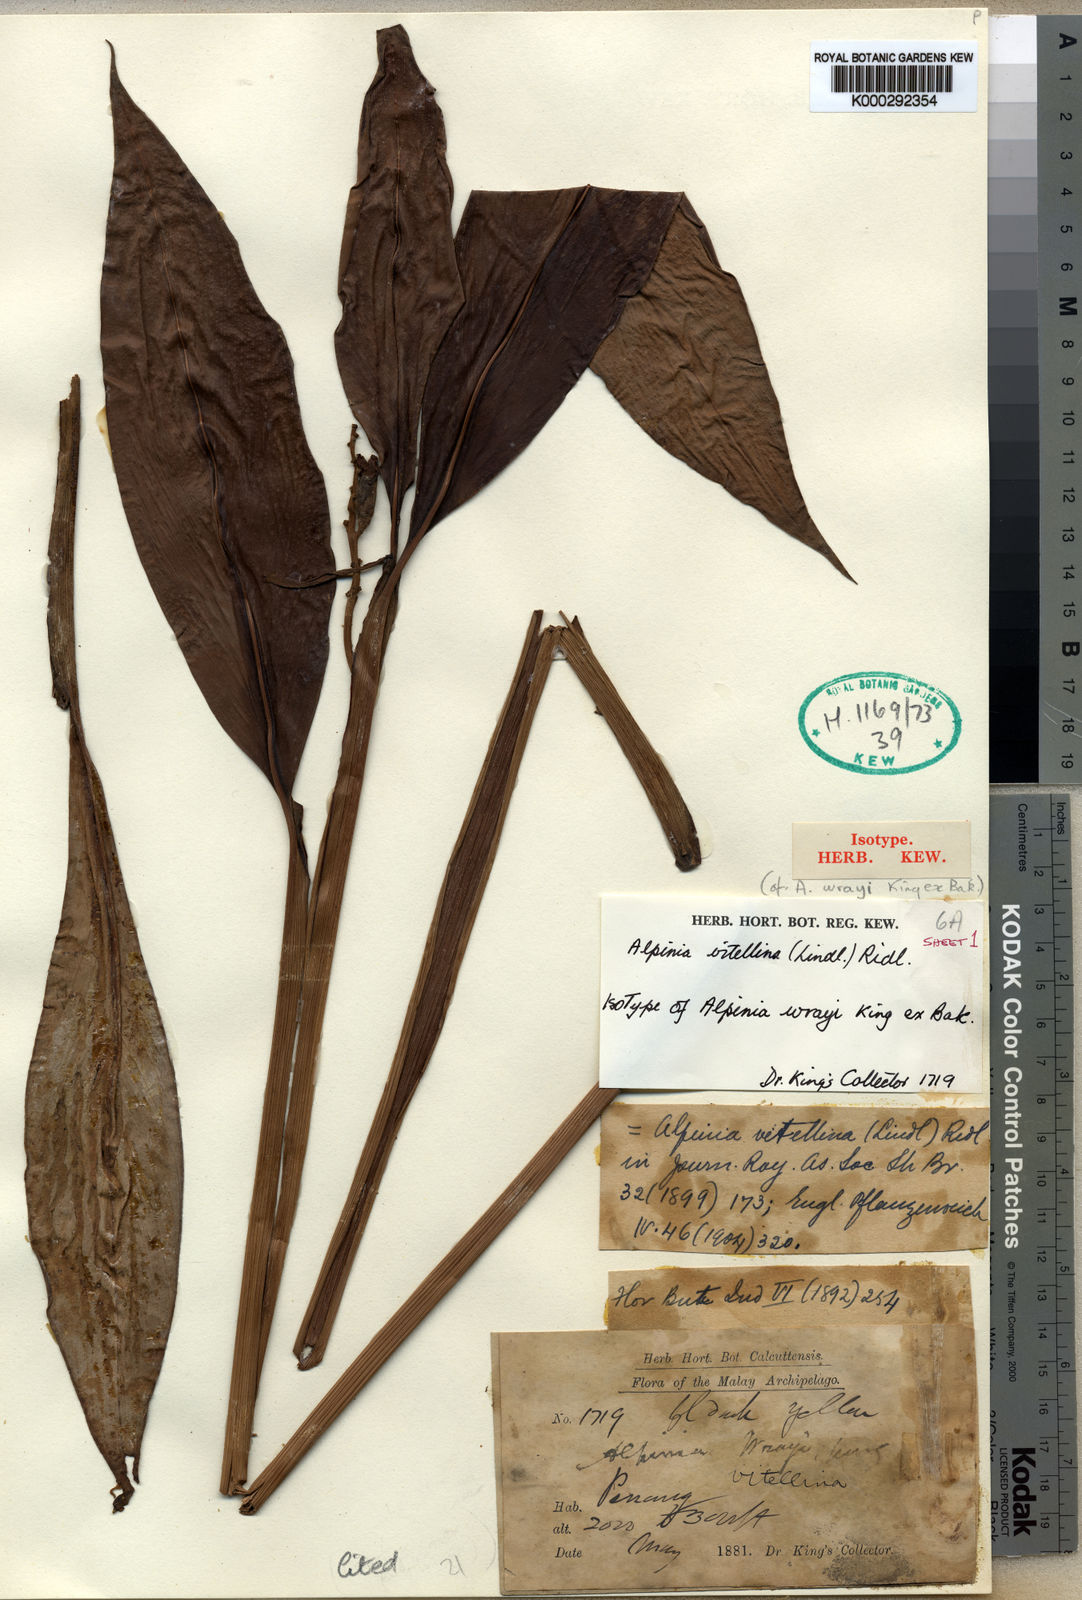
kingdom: Plantae
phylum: Tracheophyta
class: Liliopsida
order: Zingiberales
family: Zingiberaceae
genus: Alpinia
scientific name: Alpinia vitellina
